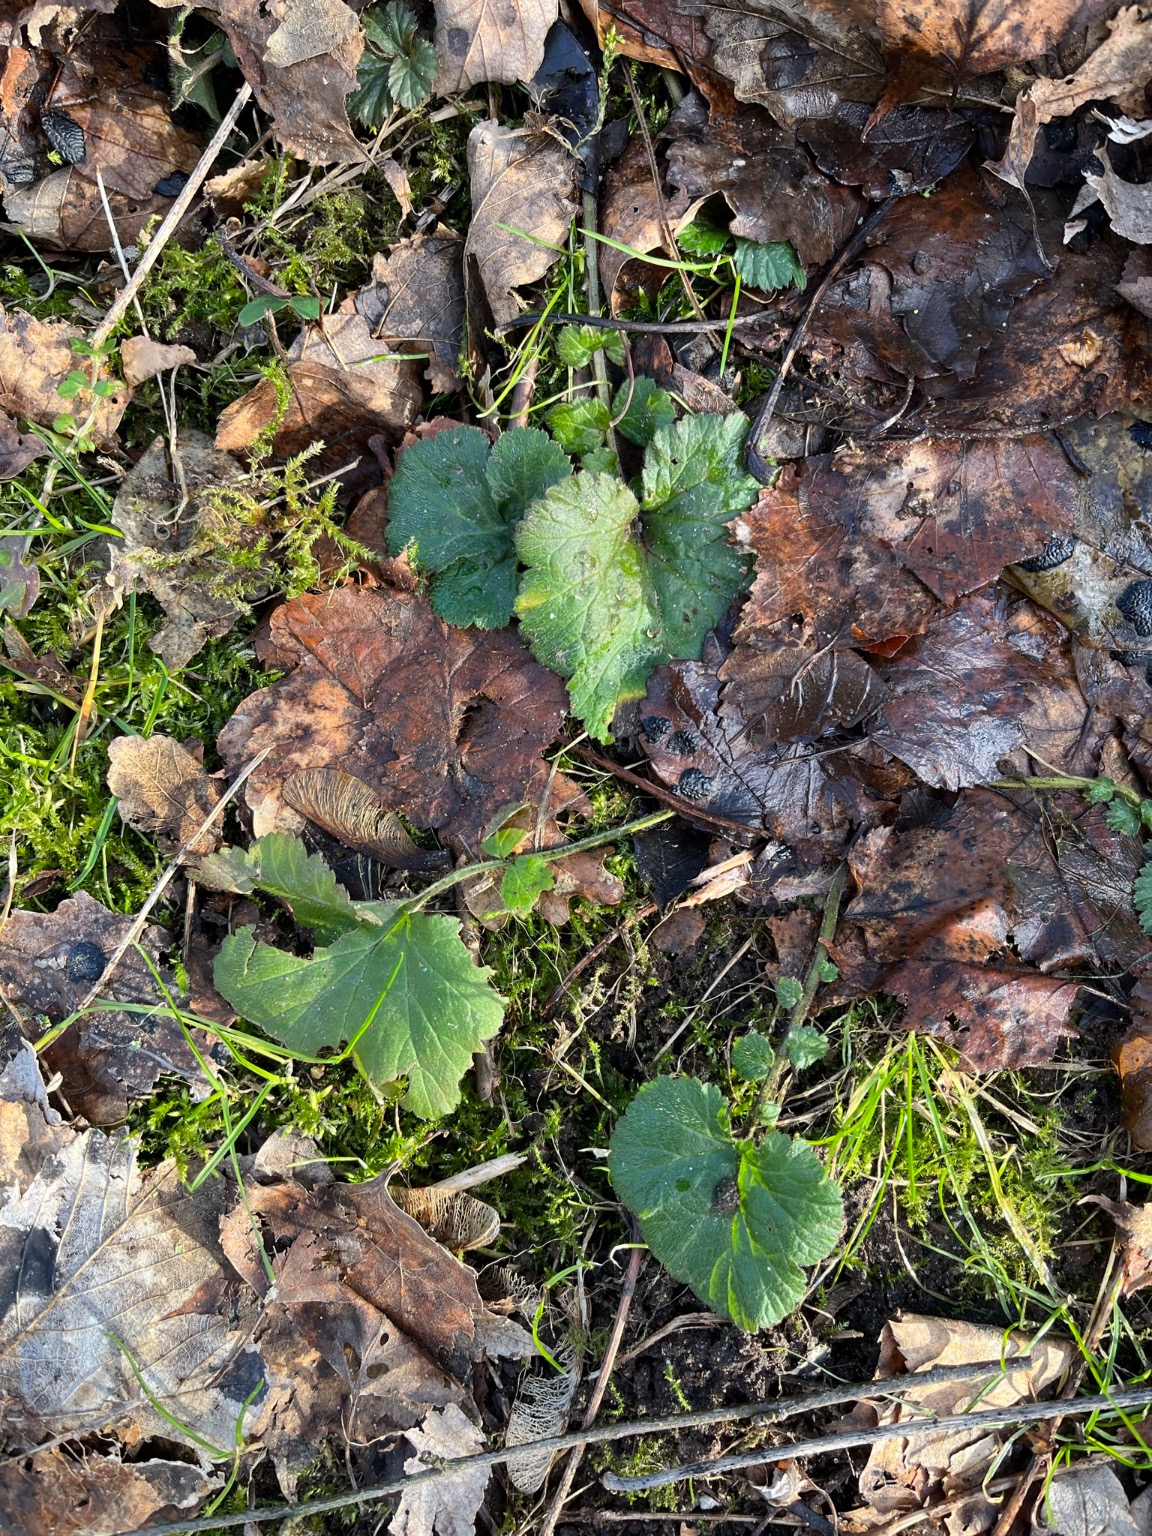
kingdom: Plantae
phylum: Tracheophyta
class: Magnoliopsida
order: Rosales
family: Rosaceae
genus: Geum
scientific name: Geum urbanum
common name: Feber-nellikerod
